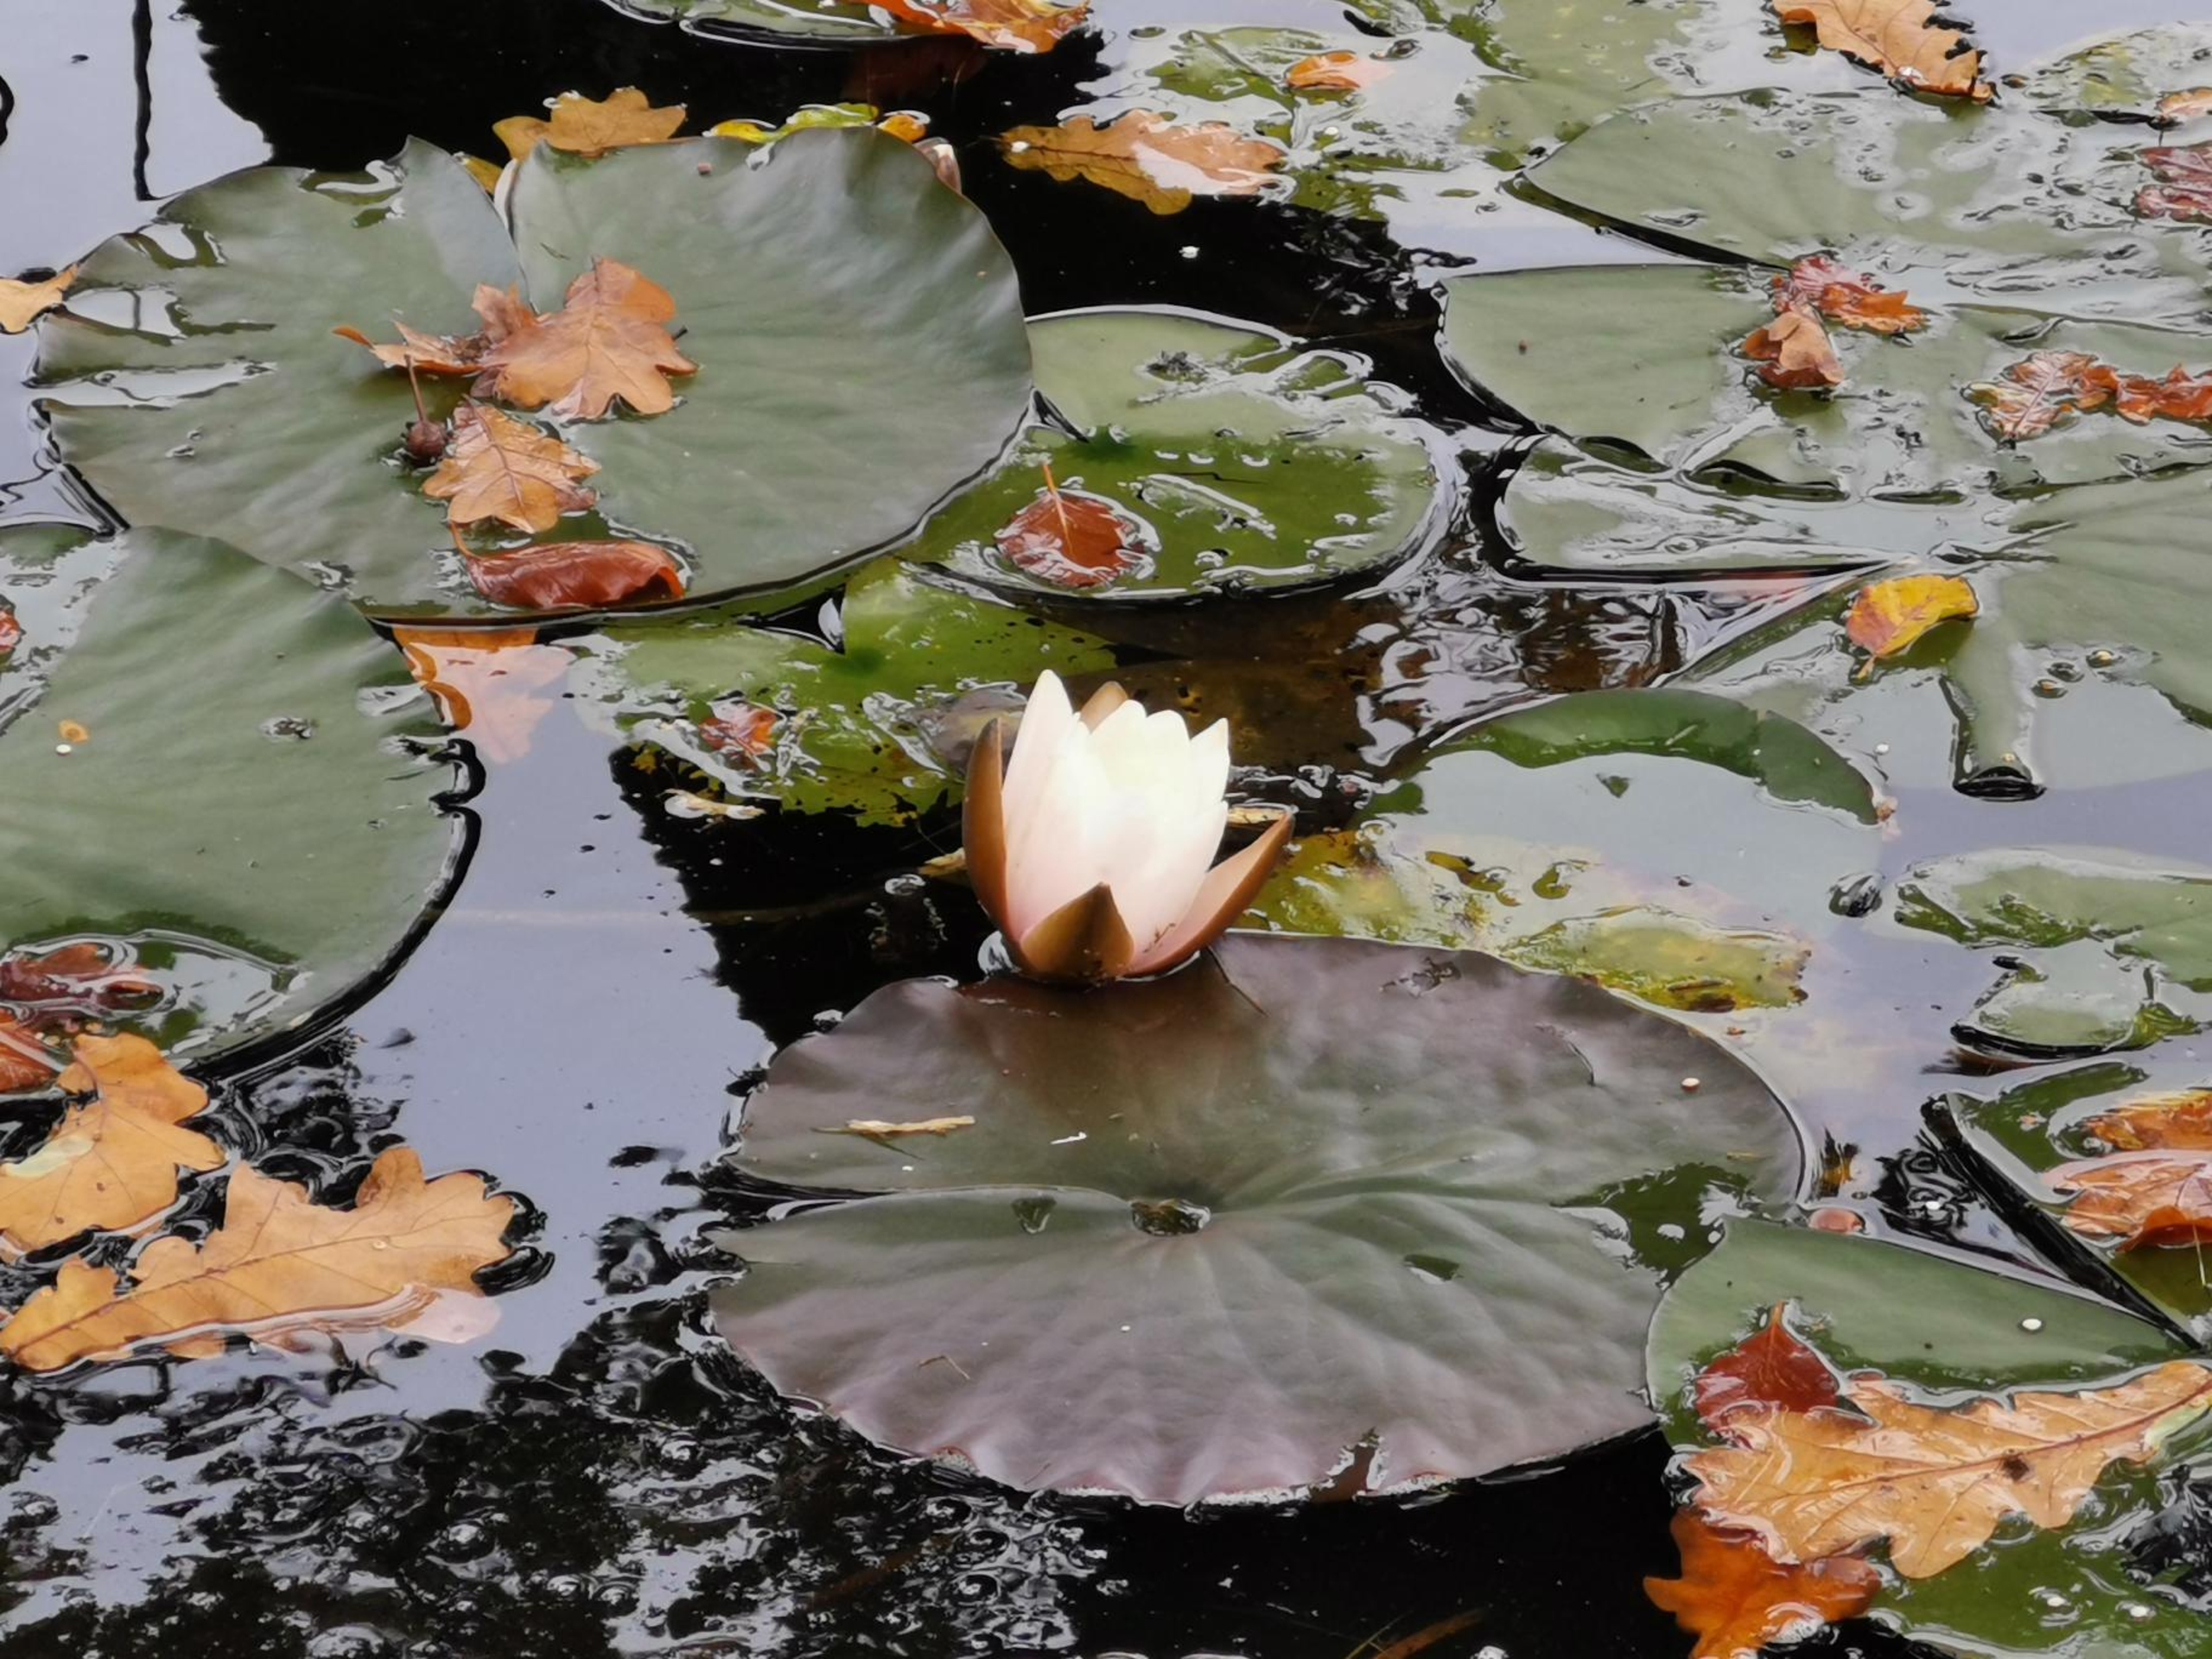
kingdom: Plantae
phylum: Tracheophyta
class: Magnoliopsida
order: Nymphaeales
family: Nymphaeaceae
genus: Nymphaea
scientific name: Nymphaea alba
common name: Hvid åkande
